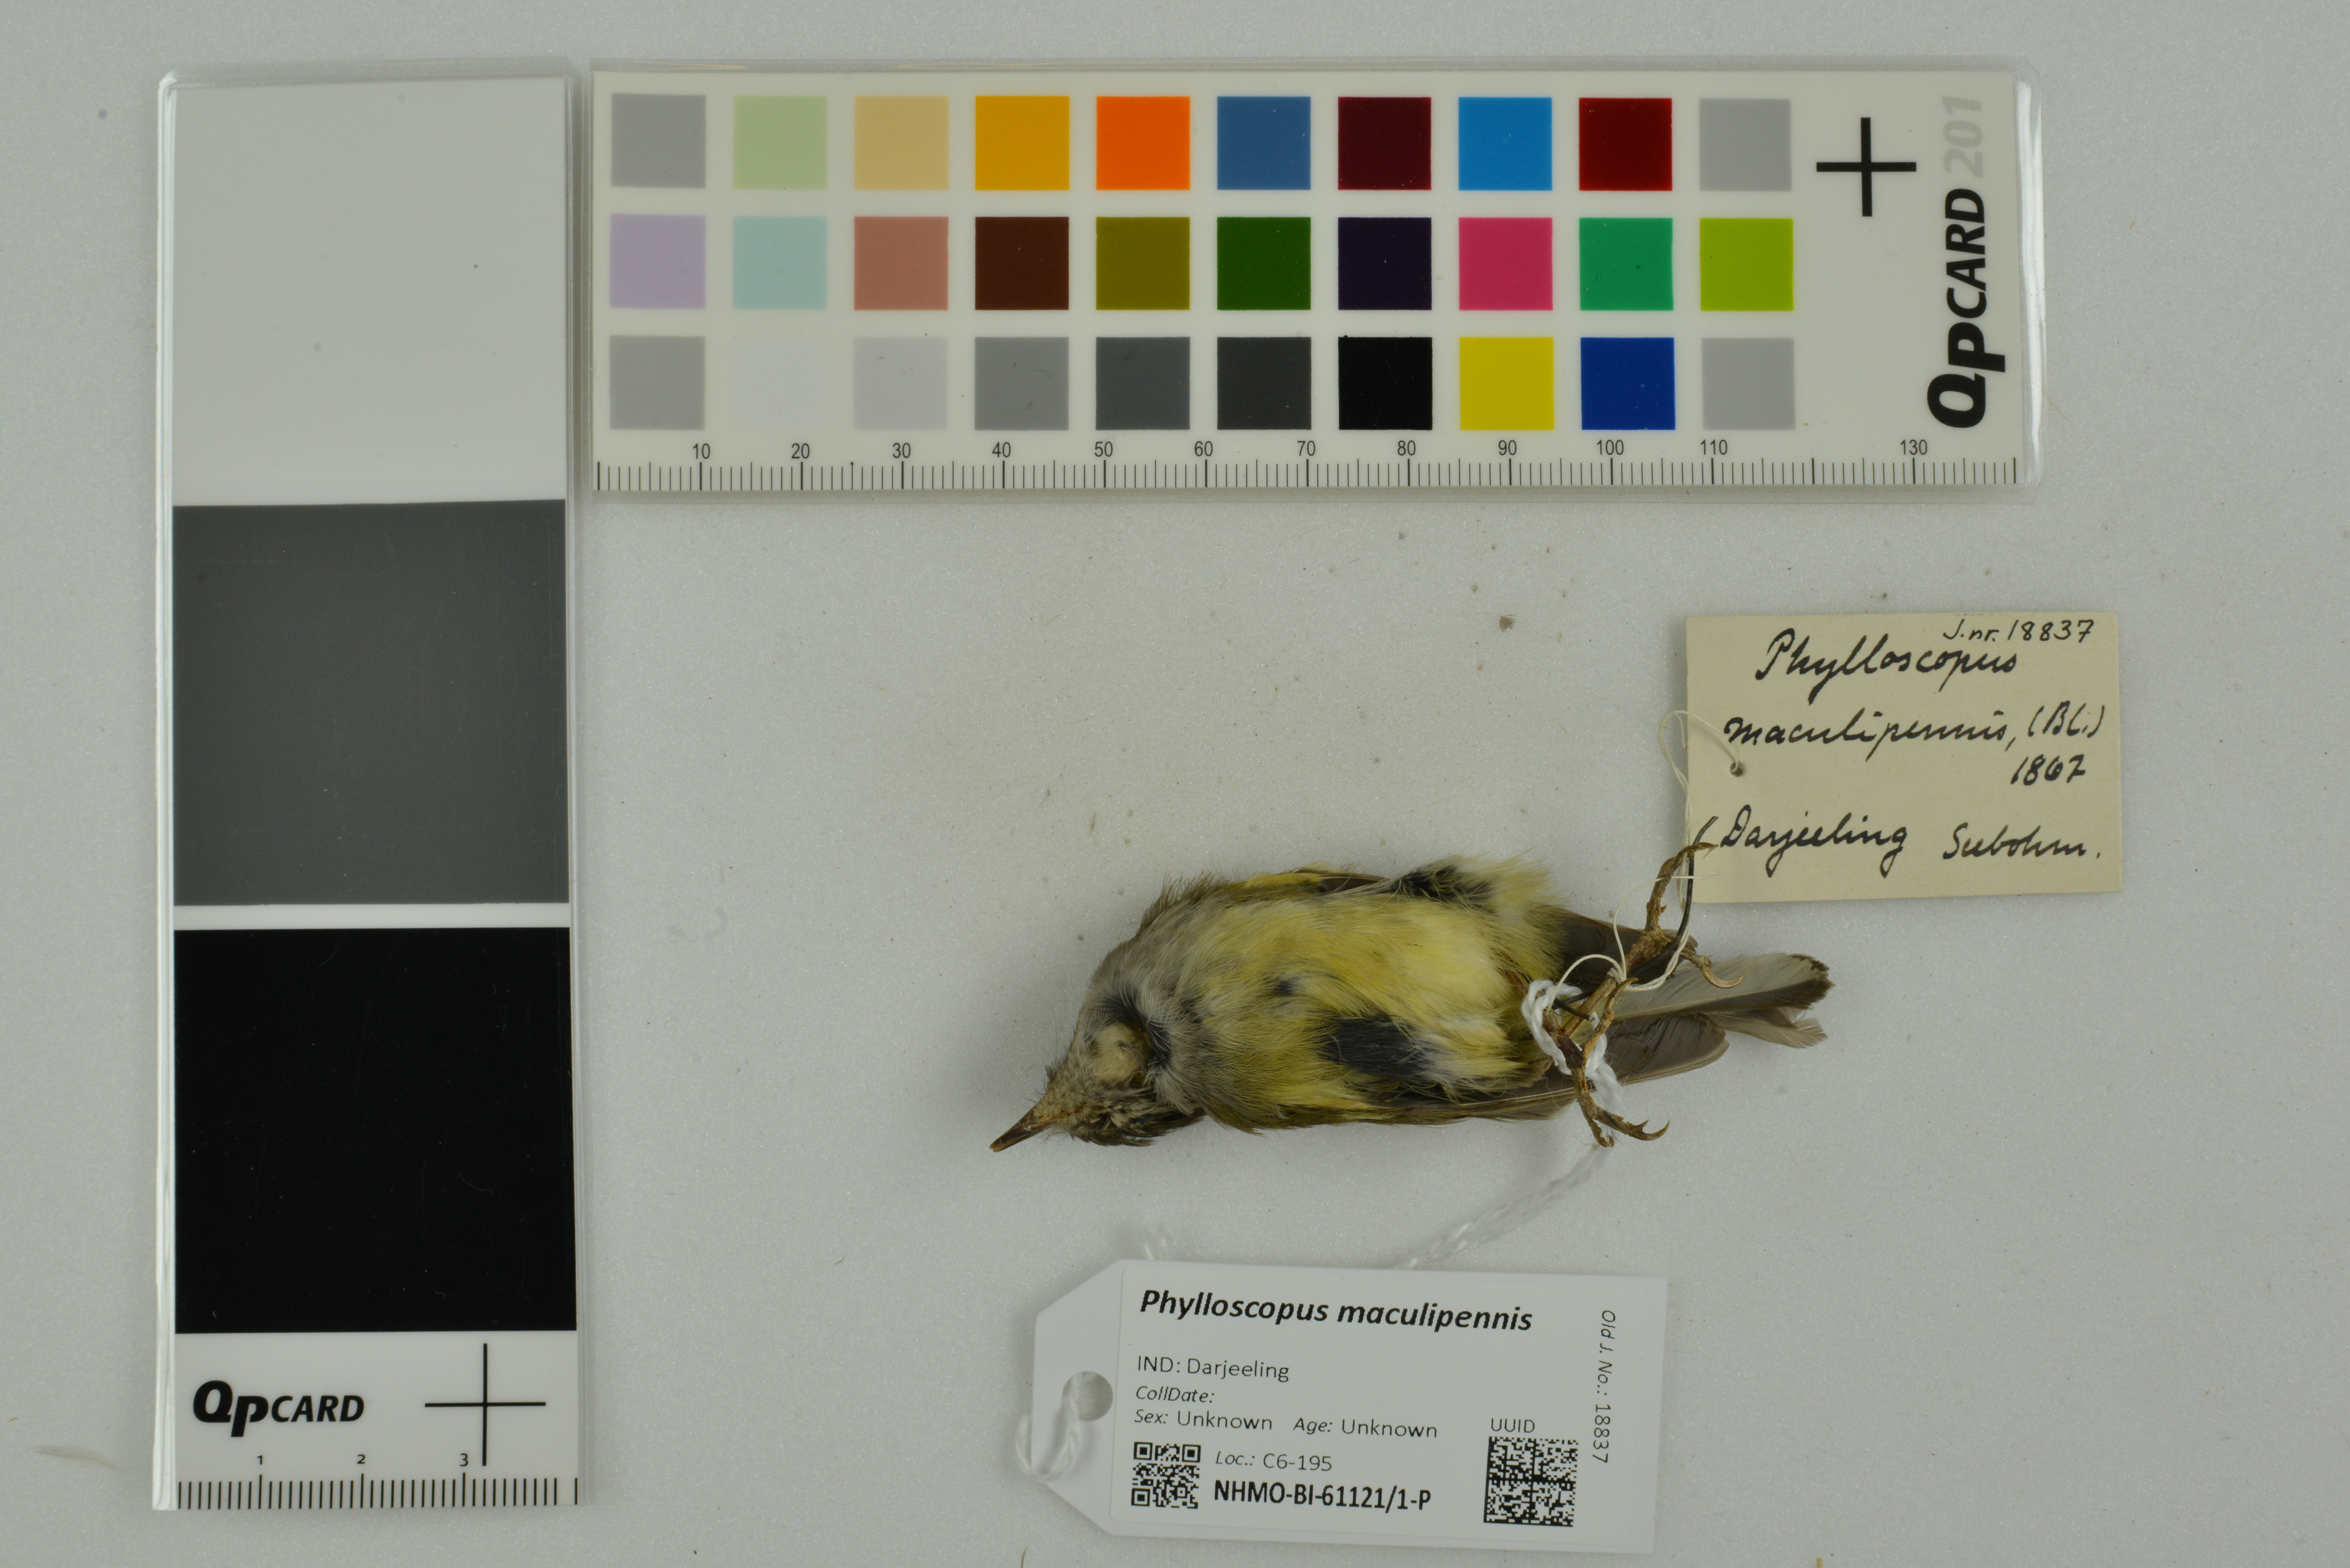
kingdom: Animalia
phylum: Chordata
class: Aves
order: Passeriformes
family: Phylloscopidae
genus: Phylloscopus
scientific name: Phylloscopus maculipennis
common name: Ashy-throated warbler
